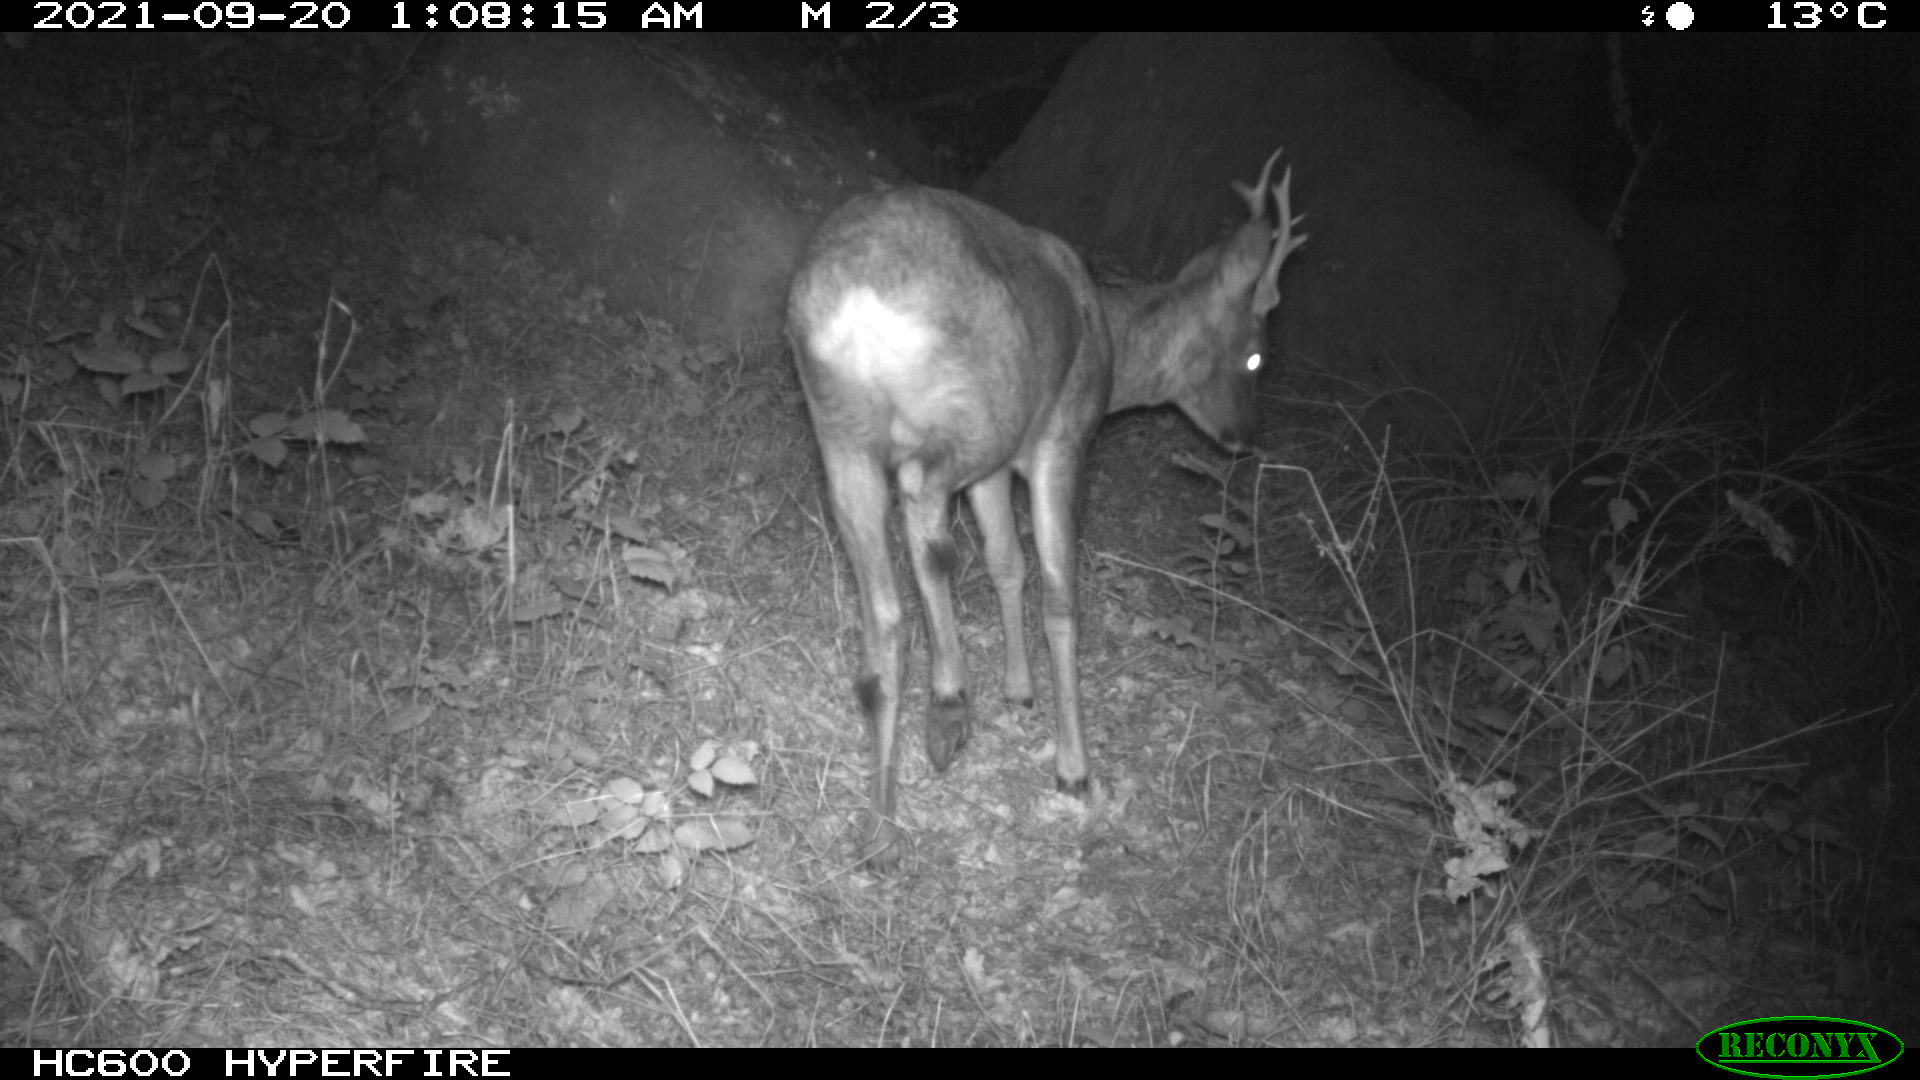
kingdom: Animalia
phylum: Chordata
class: Mammalia
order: Artiodactyla
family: Cervidae
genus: Capreolus
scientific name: Capreolus capreolus
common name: Western roe deer
